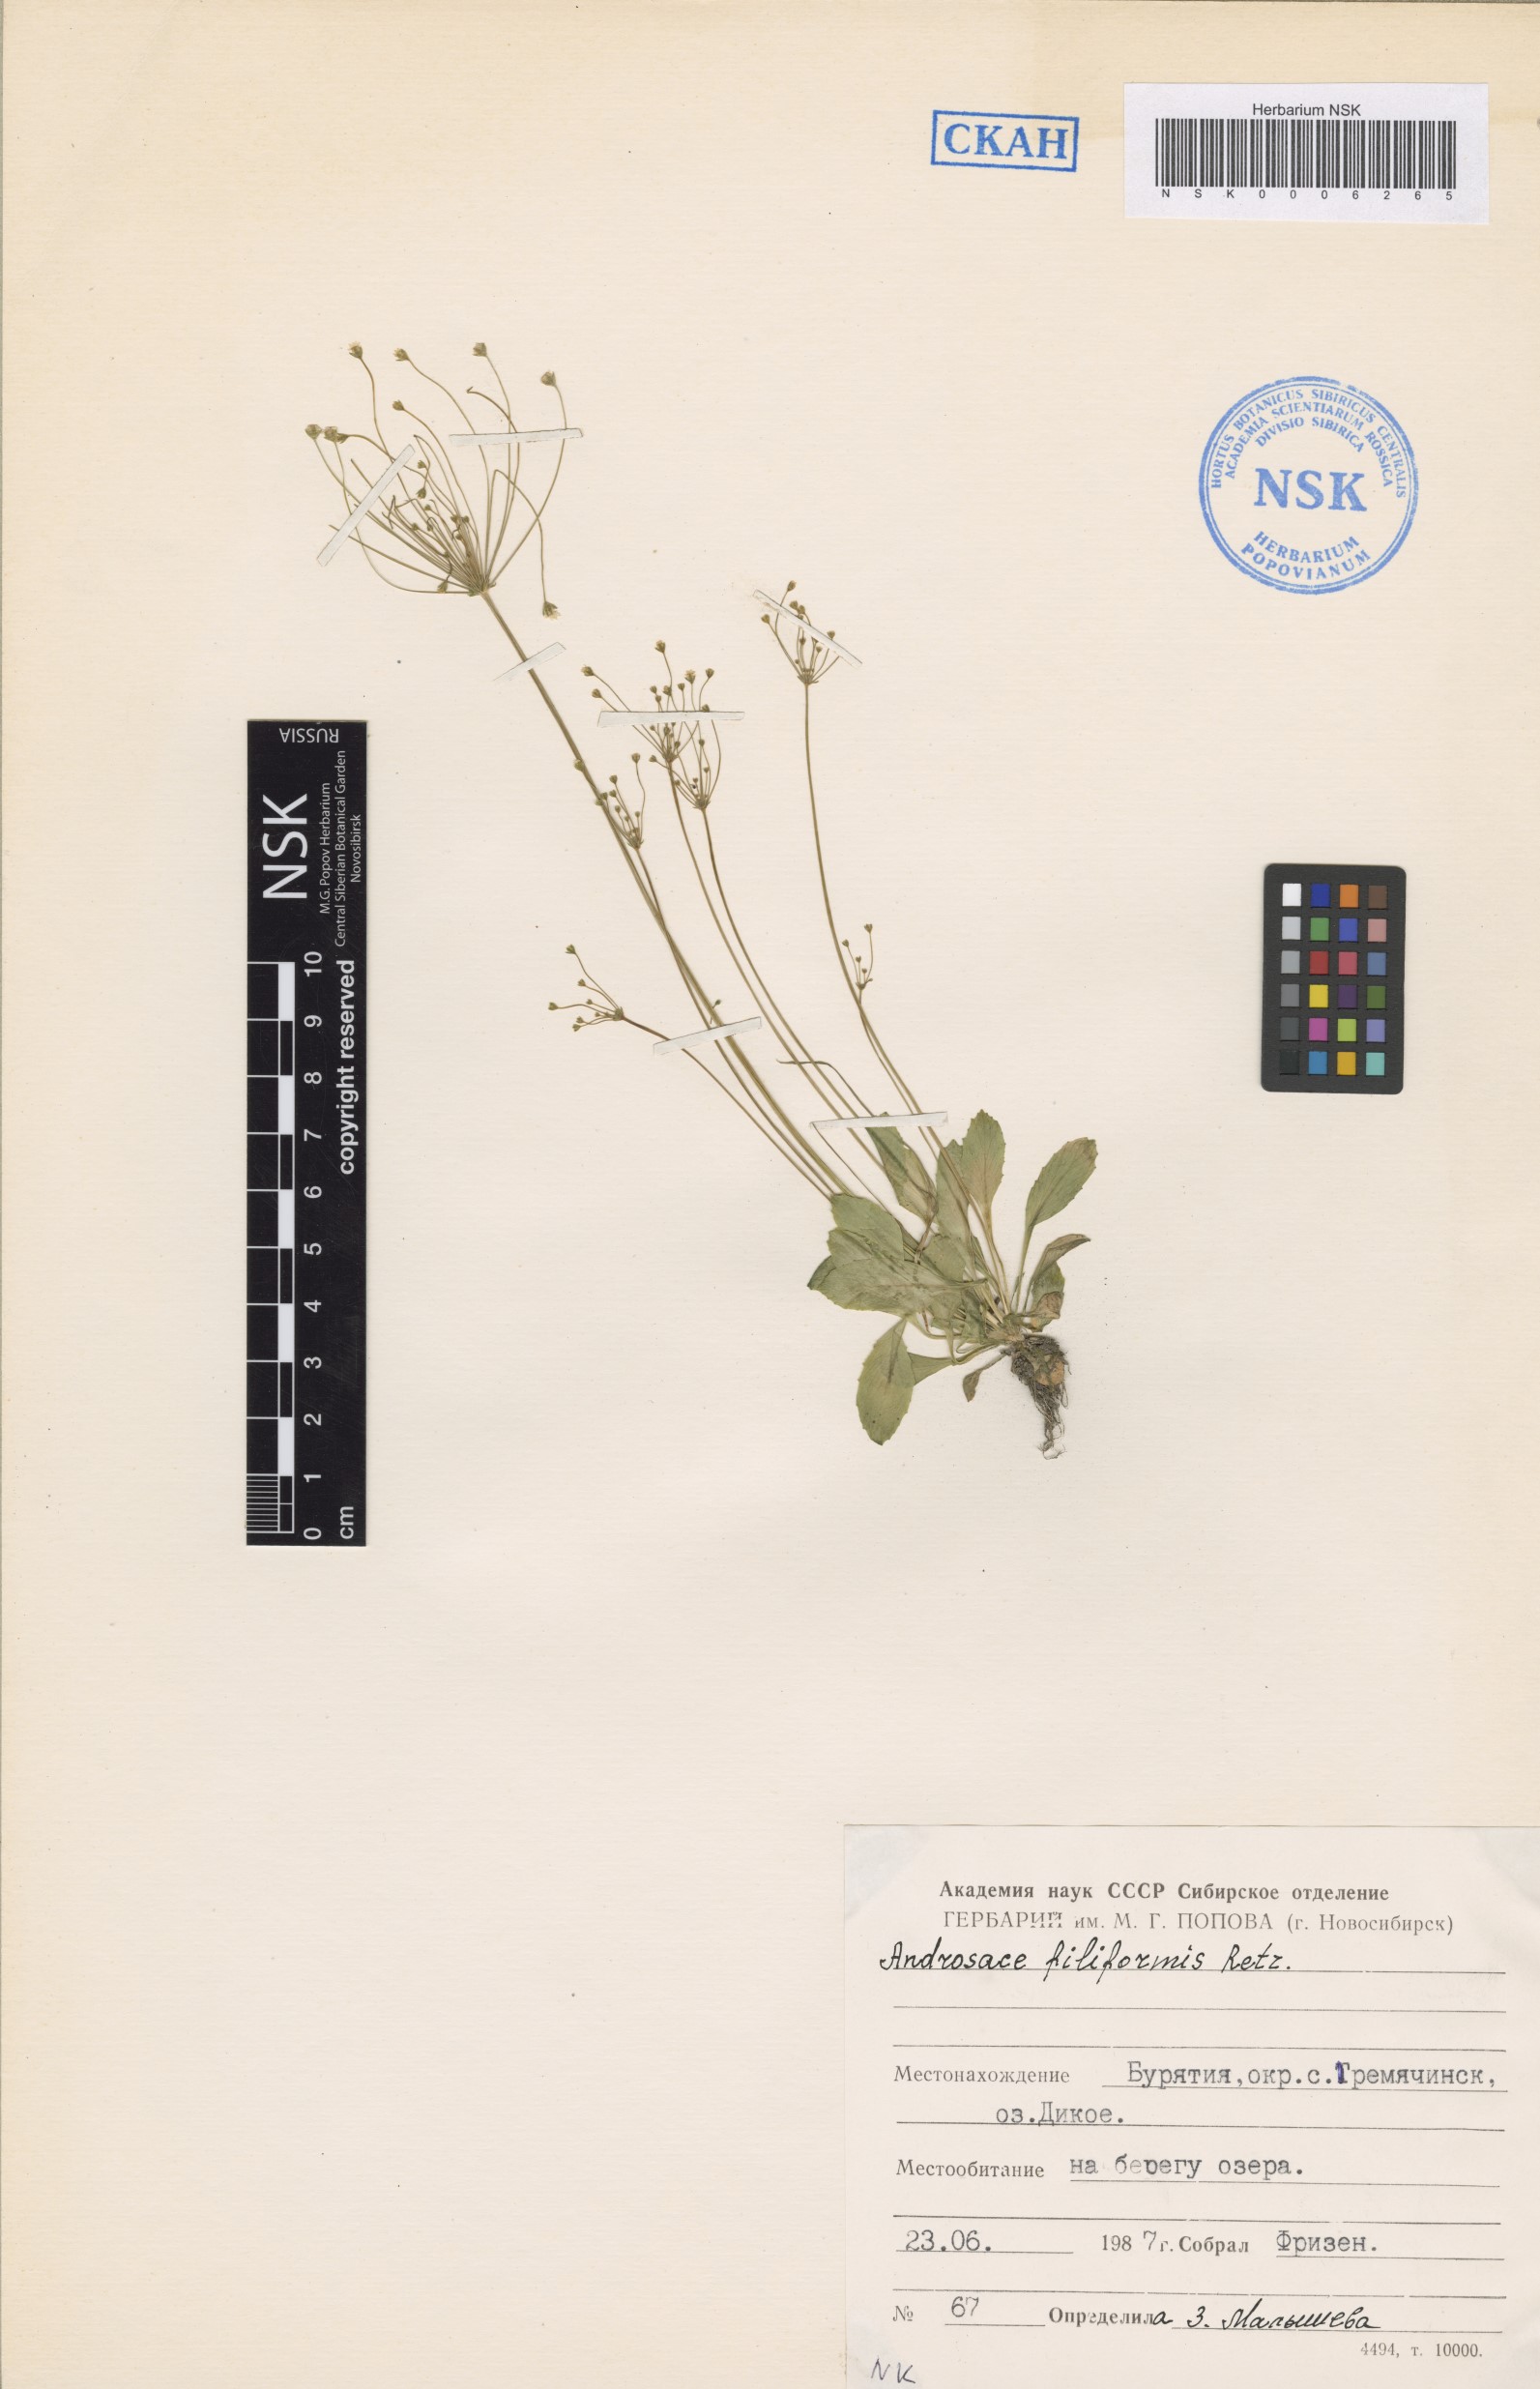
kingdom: Plantae
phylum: Tracheophyta
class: Magnoliopsida
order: Ericales
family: Primulaceae
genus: Androsace
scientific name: Androsace filiformis
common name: Filiform rock jasmine
